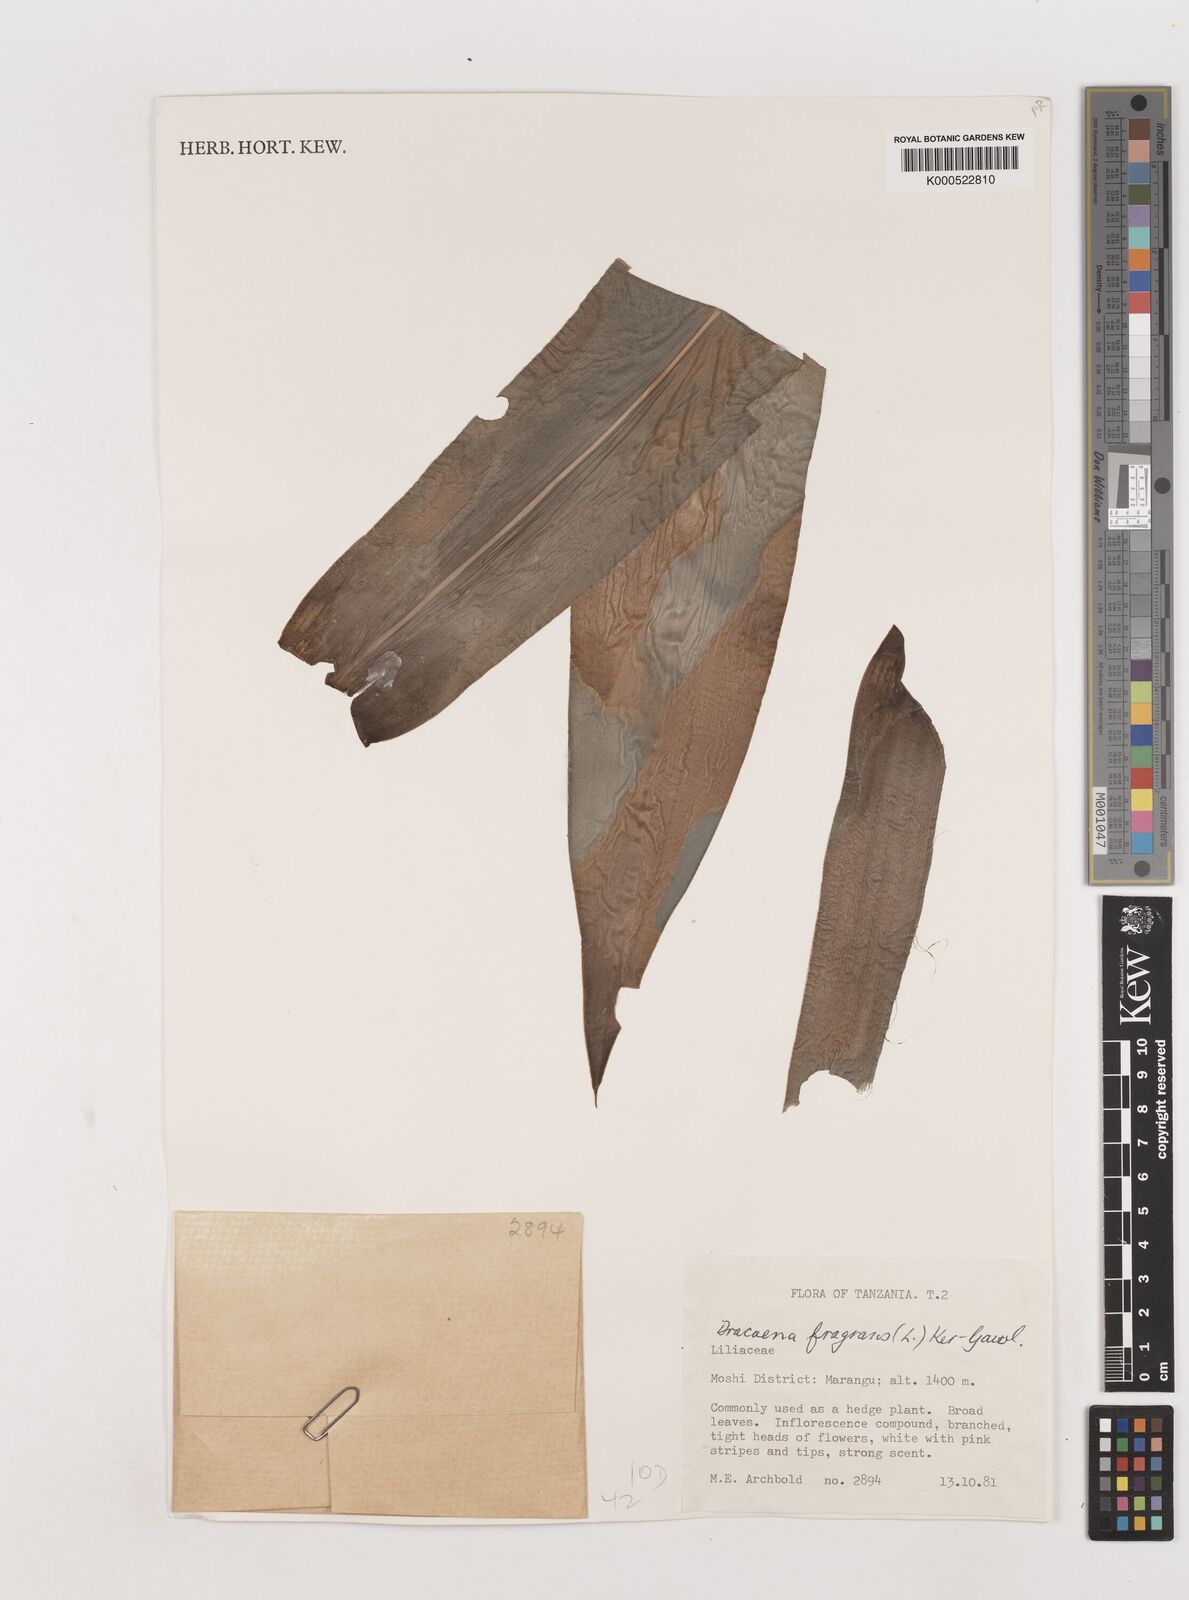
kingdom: Plantae
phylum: Tracheophyta
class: Liliopsida
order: Asparagales
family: Asparagaceae
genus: Dracaena
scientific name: Dracaena fragrans
